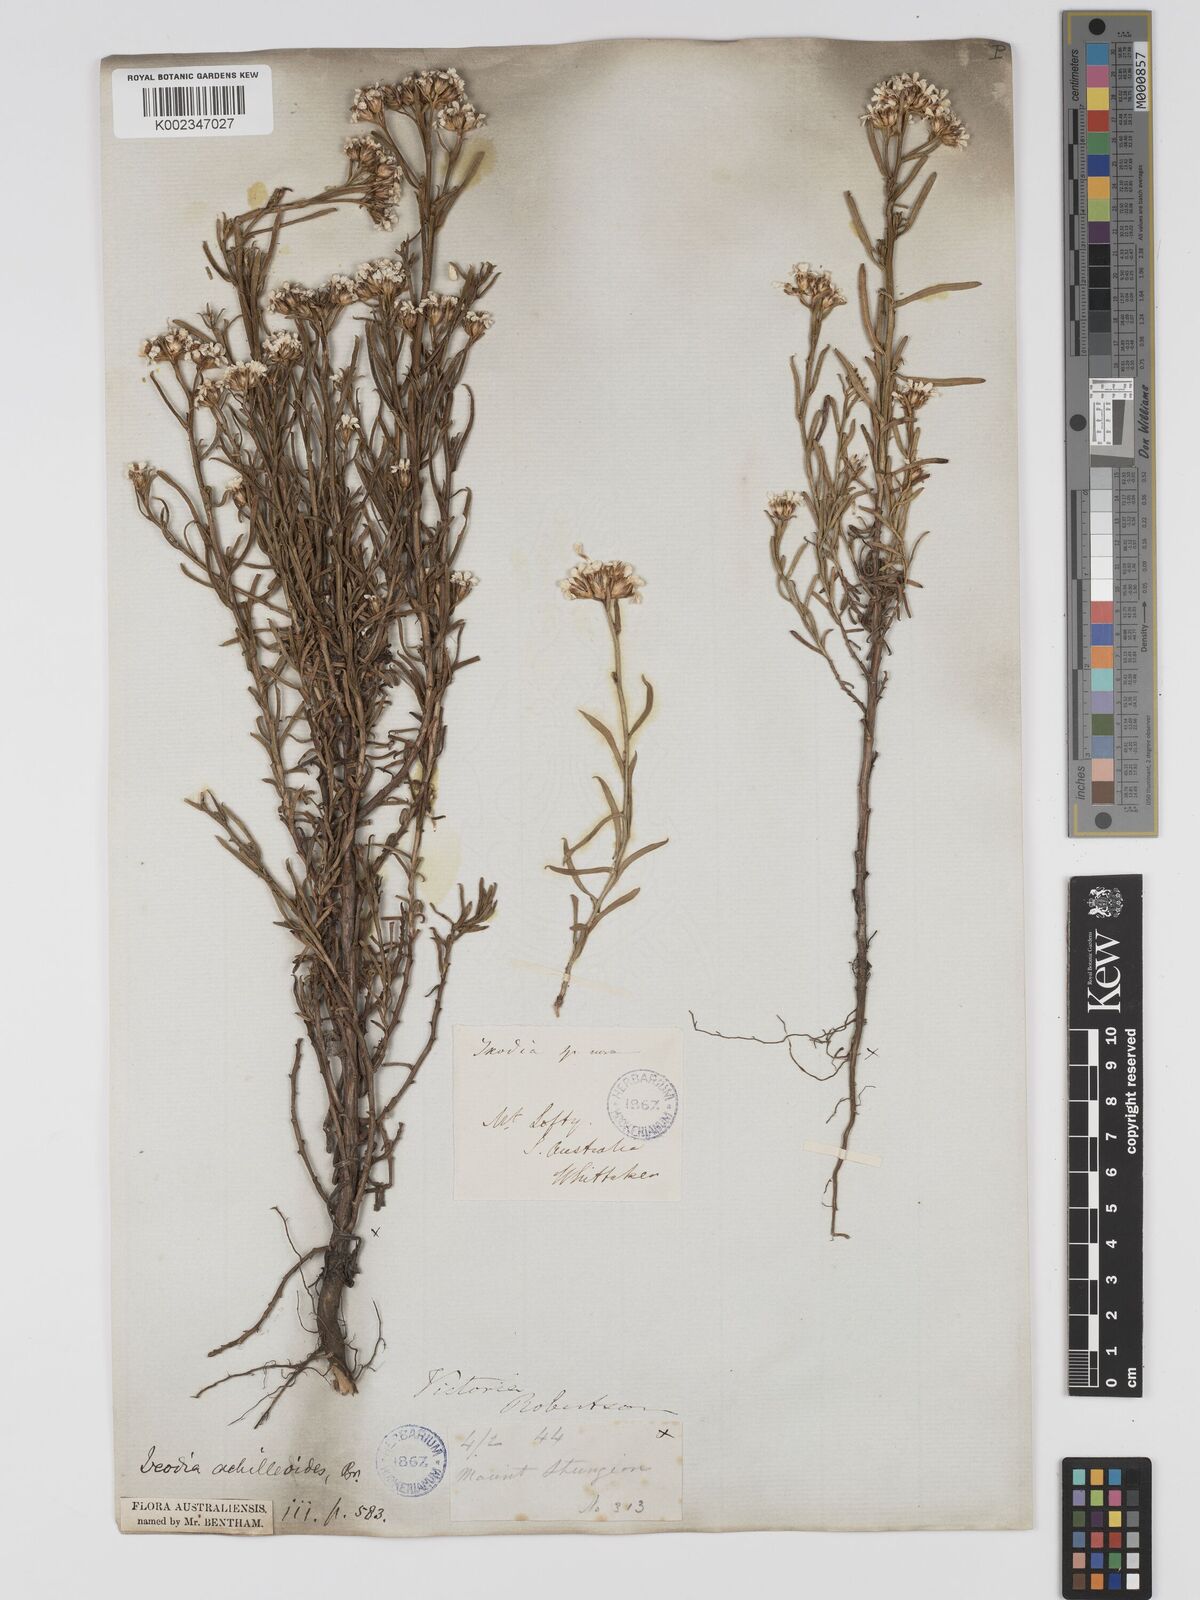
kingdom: Plantae
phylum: Tracheophyta
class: Magnoliopsida
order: Asterales
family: Asteraceae
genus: Ixodia
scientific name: Ixodia achilleoides
